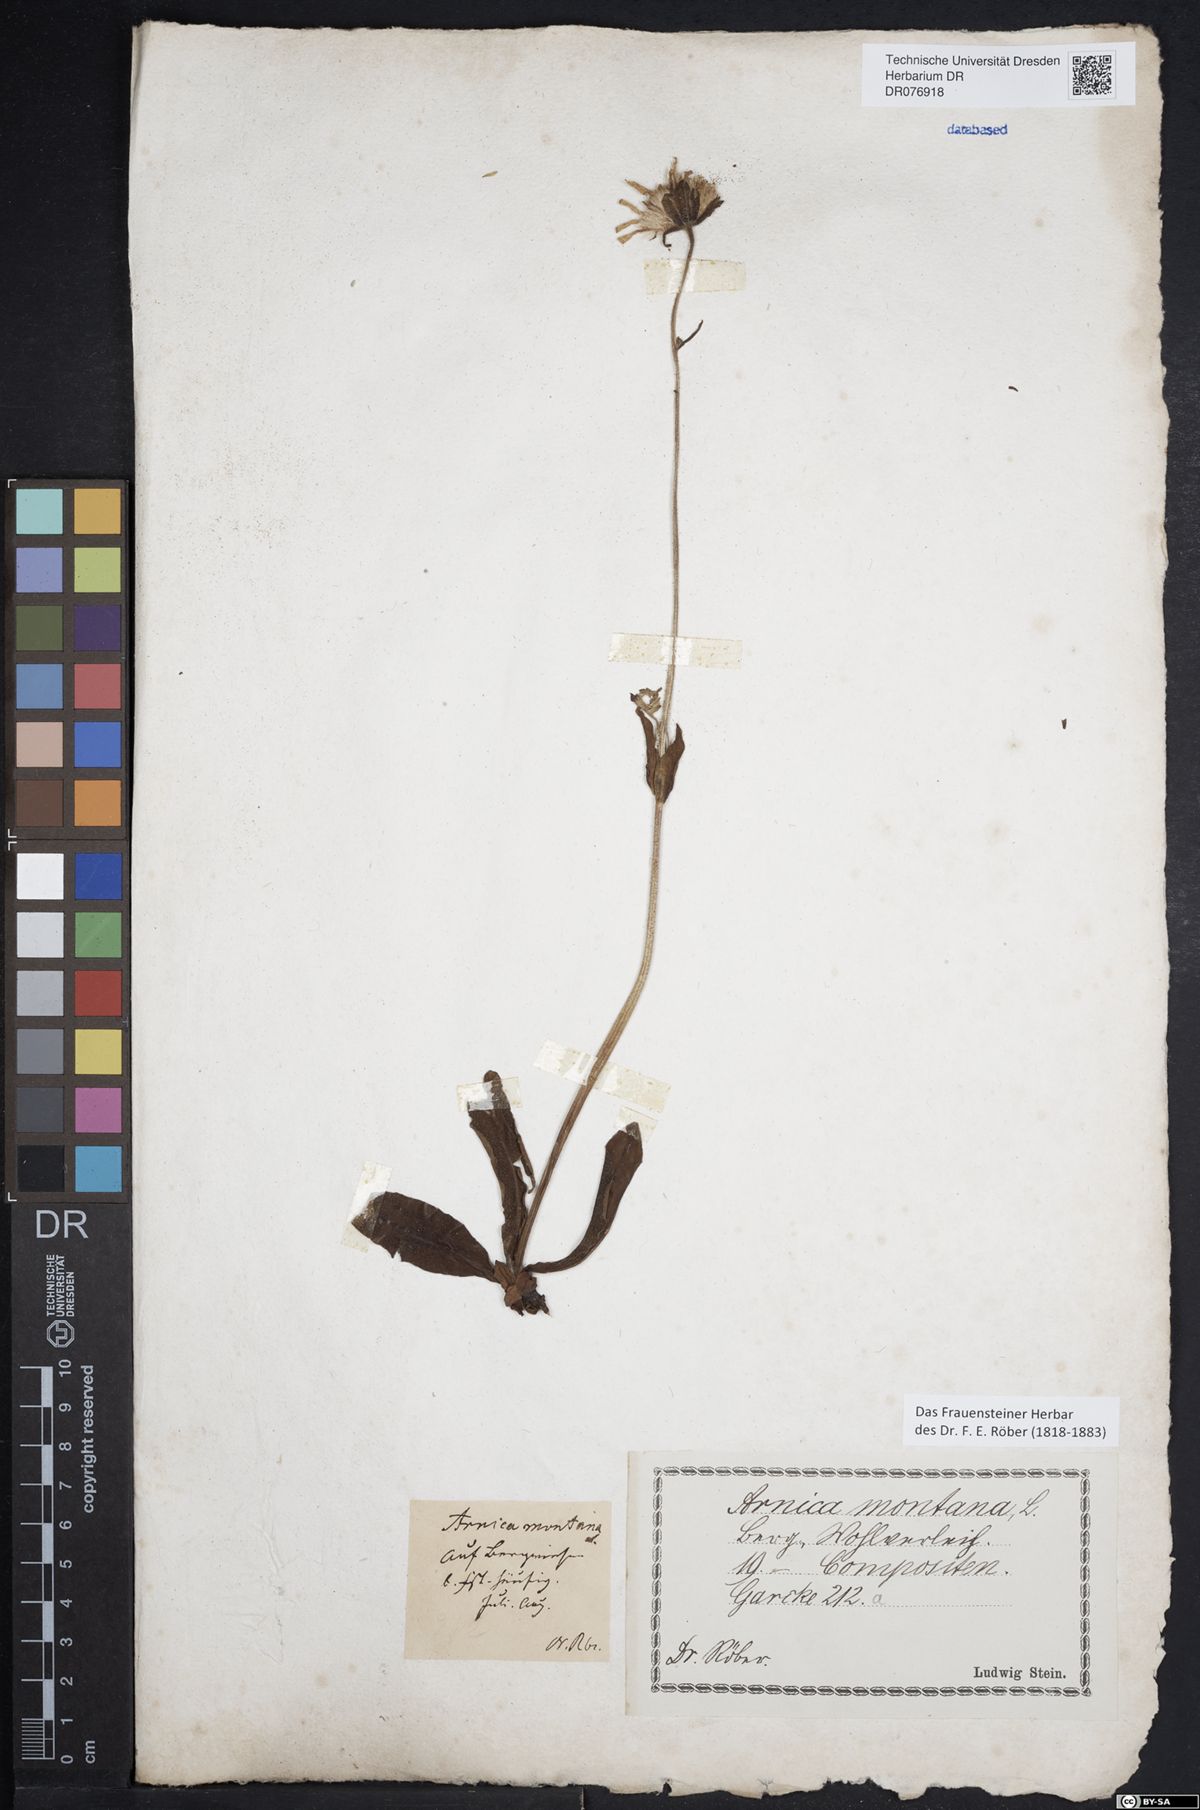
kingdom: Plantae
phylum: Tracheophyta
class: Magnoliopsida
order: Asterales
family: Asteraceae
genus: Arnica
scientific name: Arnica montana
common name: Leopard's bane
